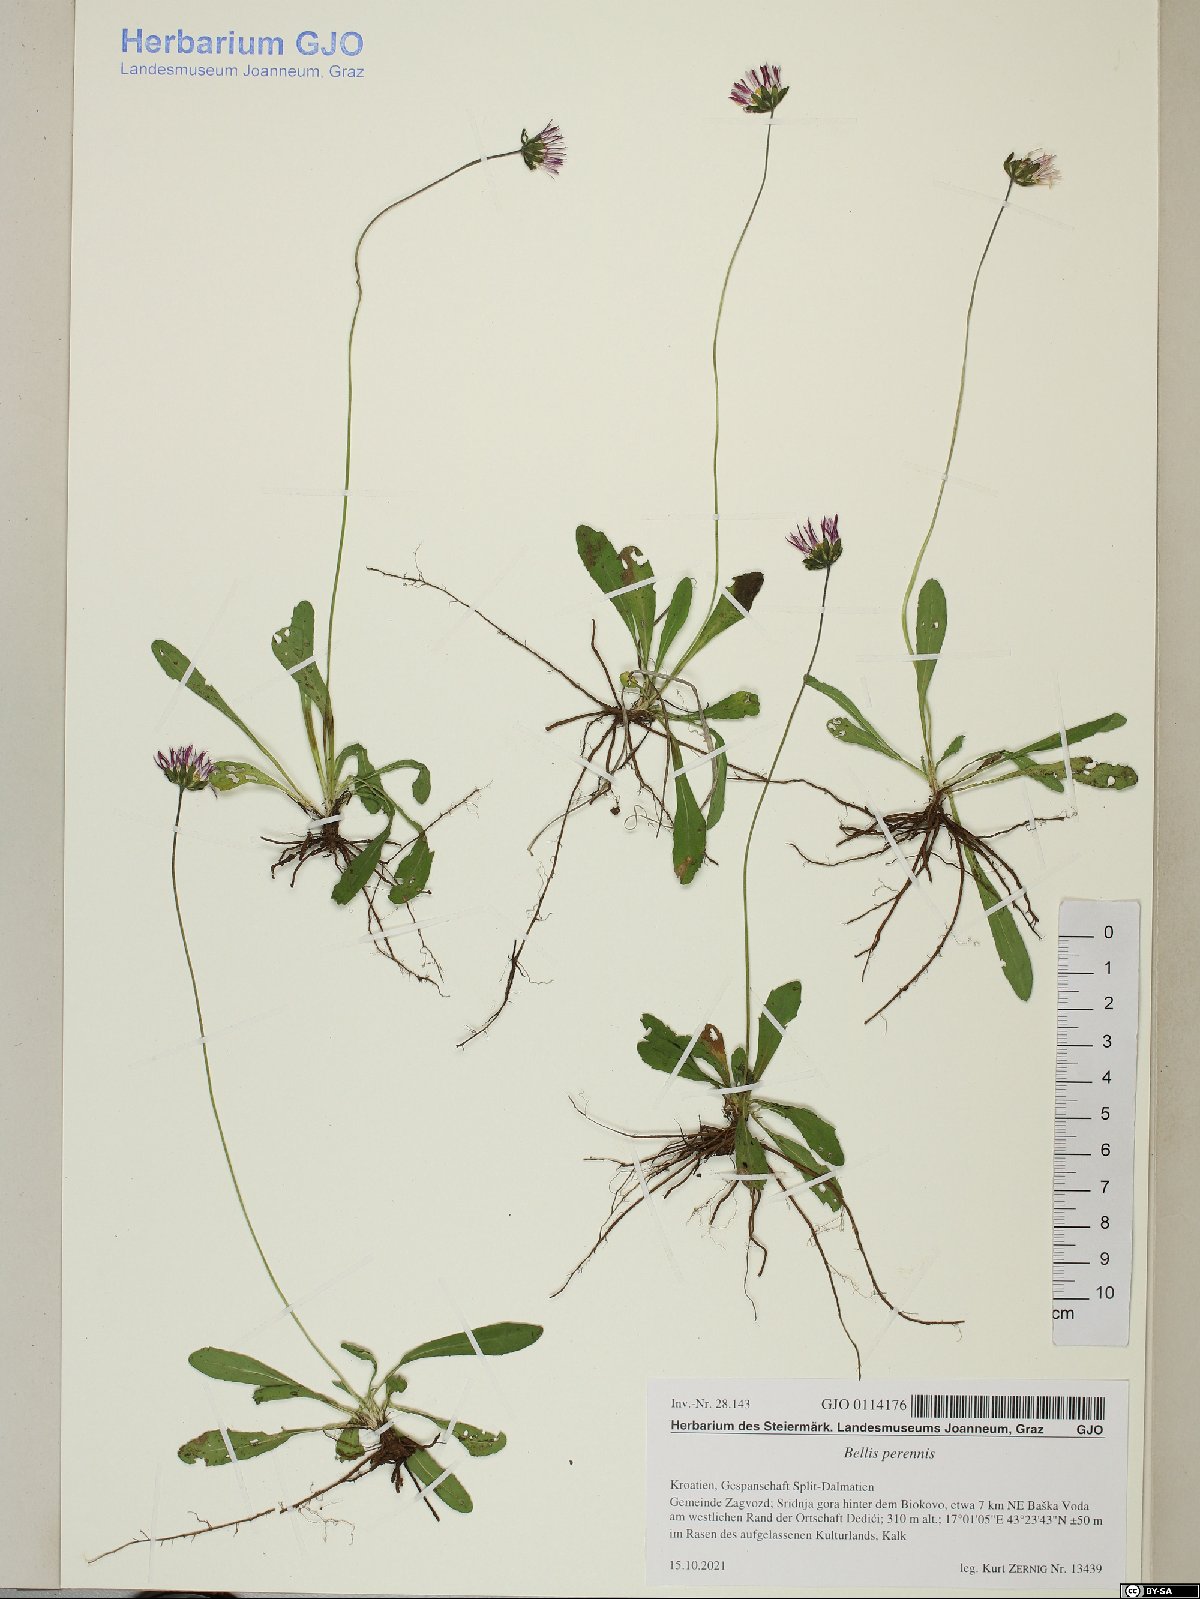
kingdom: Plantae
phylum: Tracheophyta
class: Magnoliopsida
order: Asterales
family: Asteraceae
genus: Bellis
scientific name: Bellis perennis
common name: Lawndaisy
